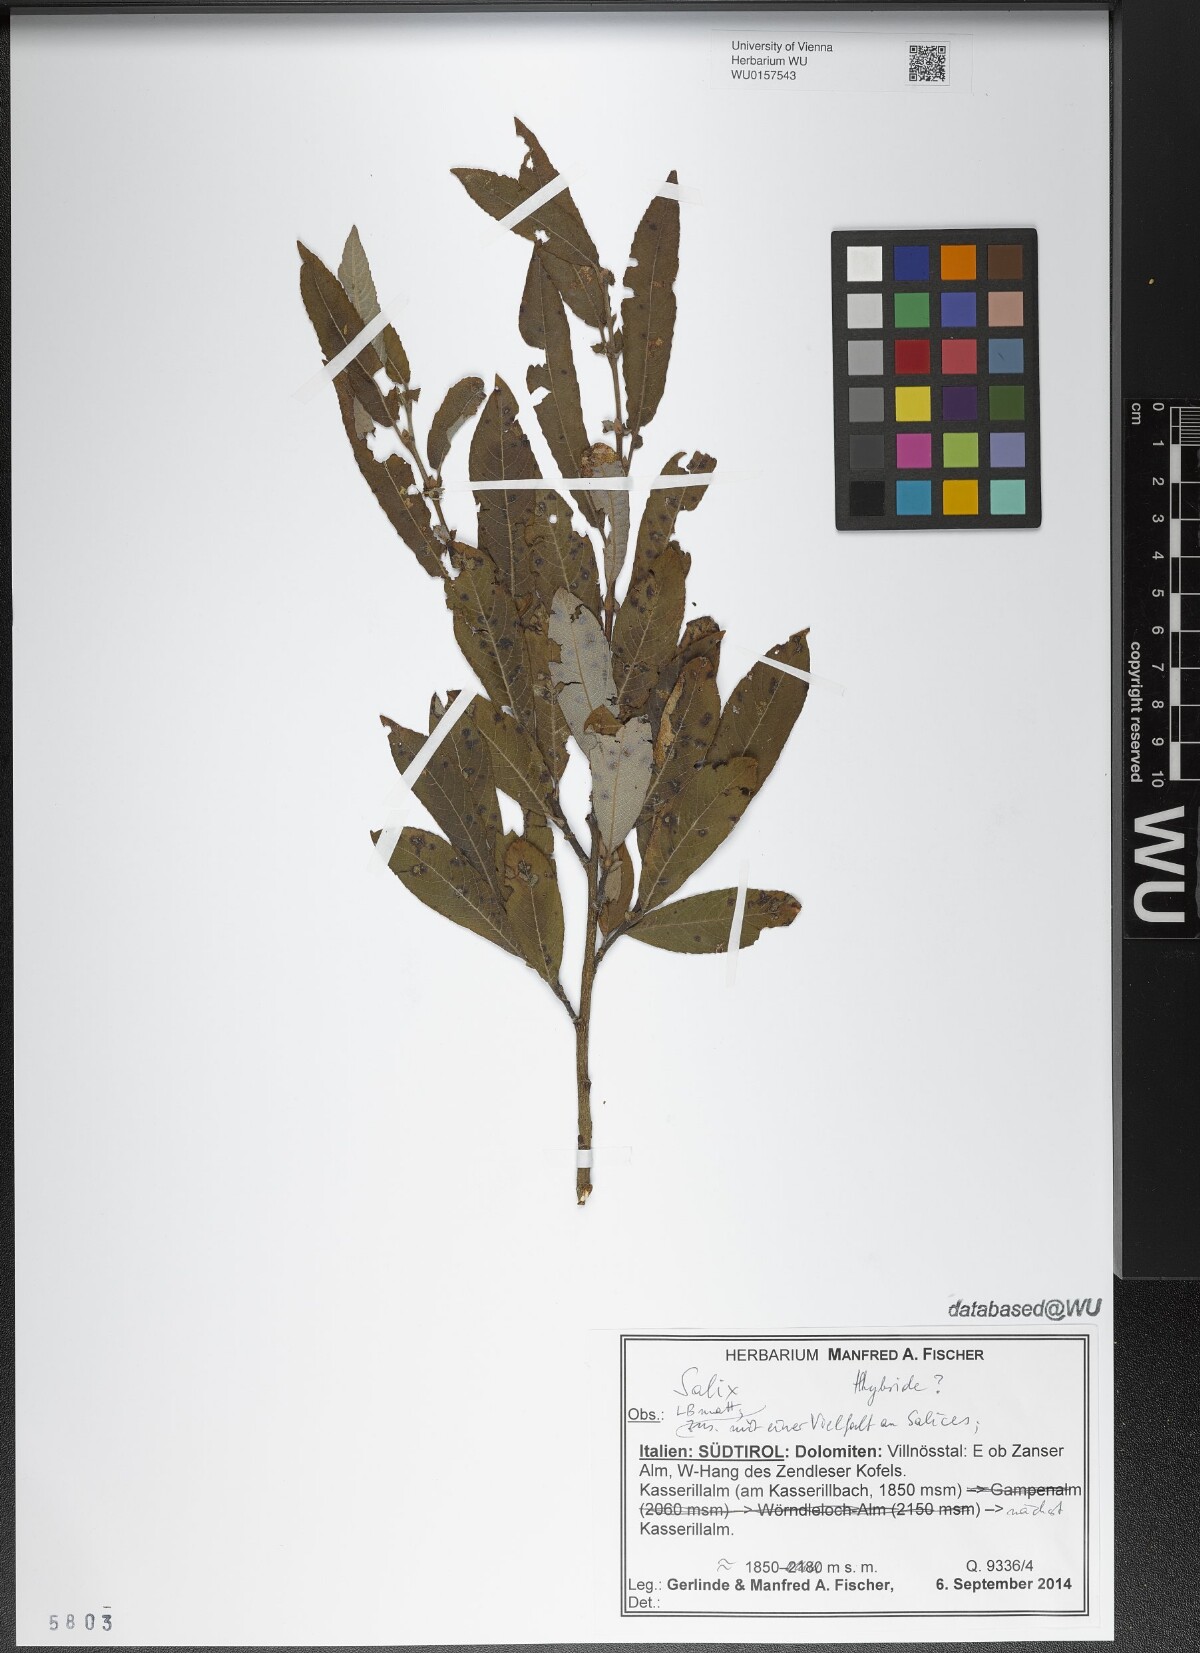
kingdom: Plantae
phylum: Tracheophyta
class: Magnoliopsida
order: Malpighiales
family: Salicaceae
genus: Salix
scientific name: Salix
